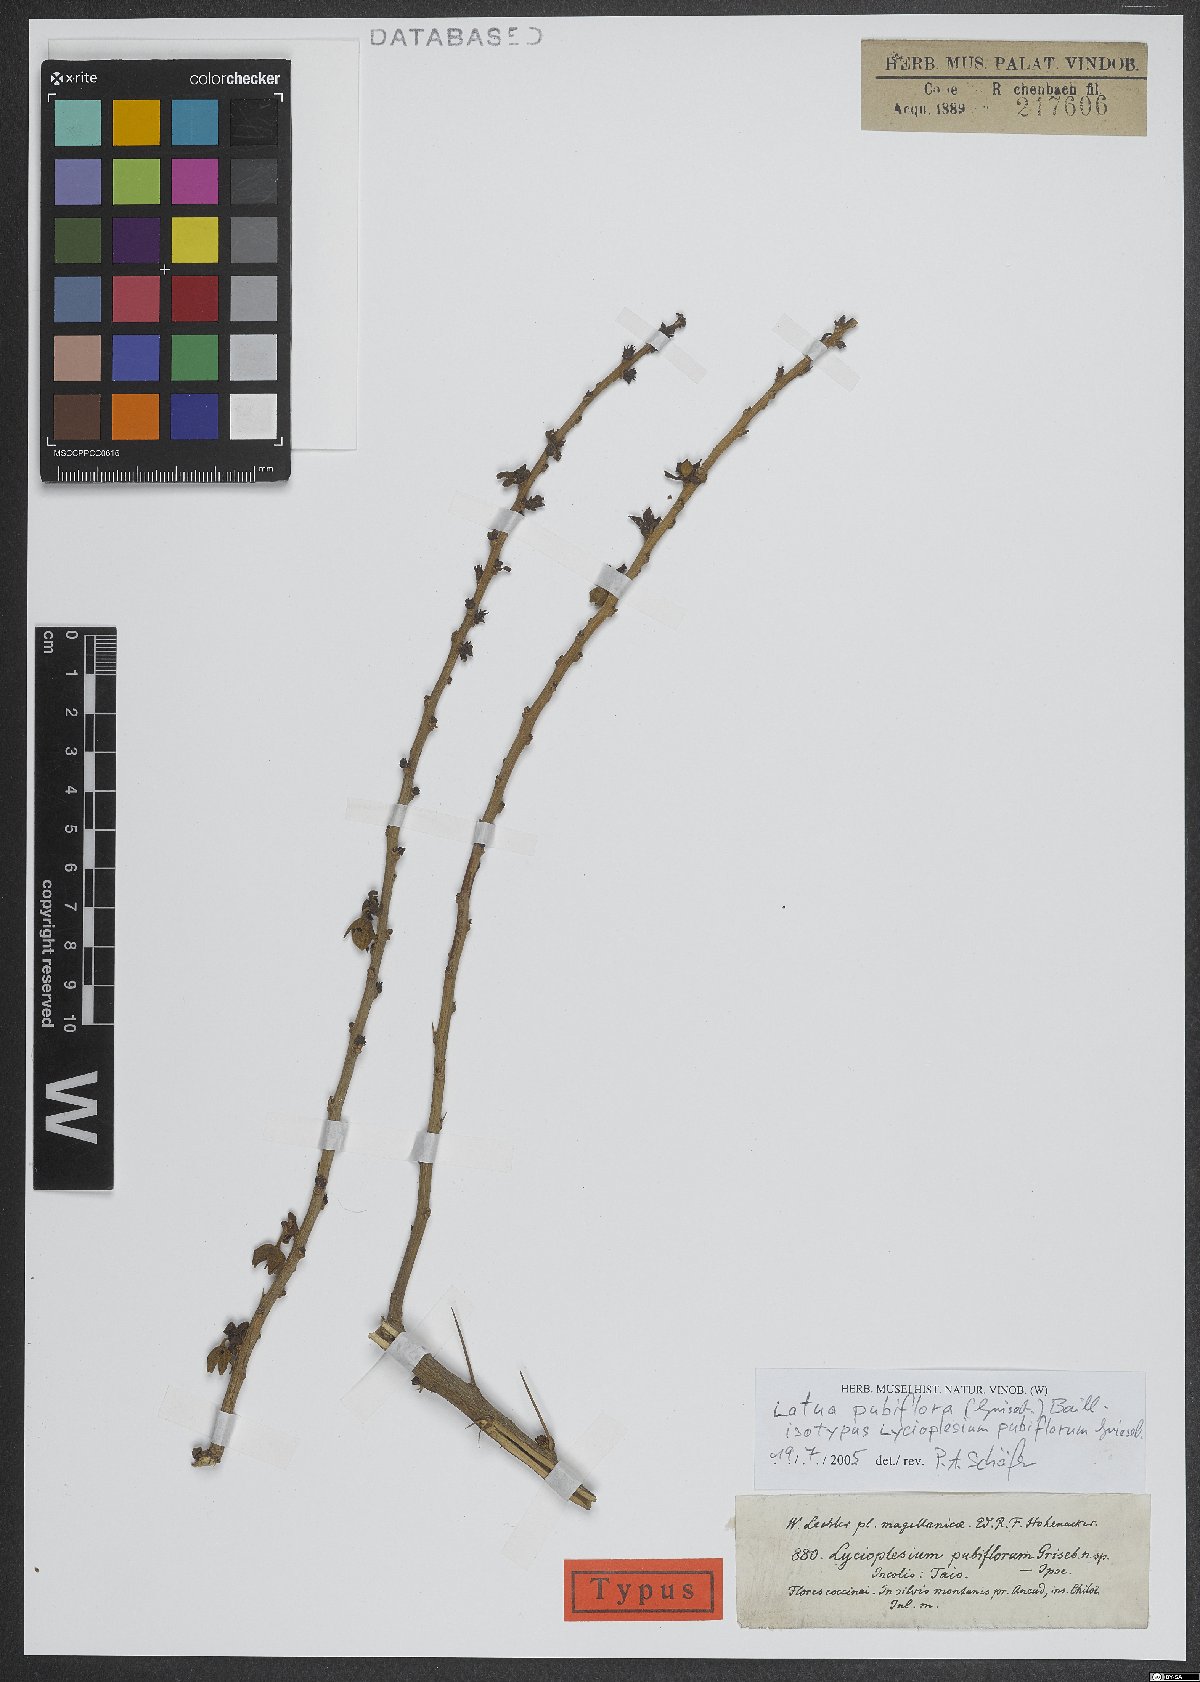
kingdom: Plantae
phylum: Tracheophyta
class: Magnoliopsida
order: Solanales
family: Solanaceae
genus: Latua
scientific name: Latua pubiflora
